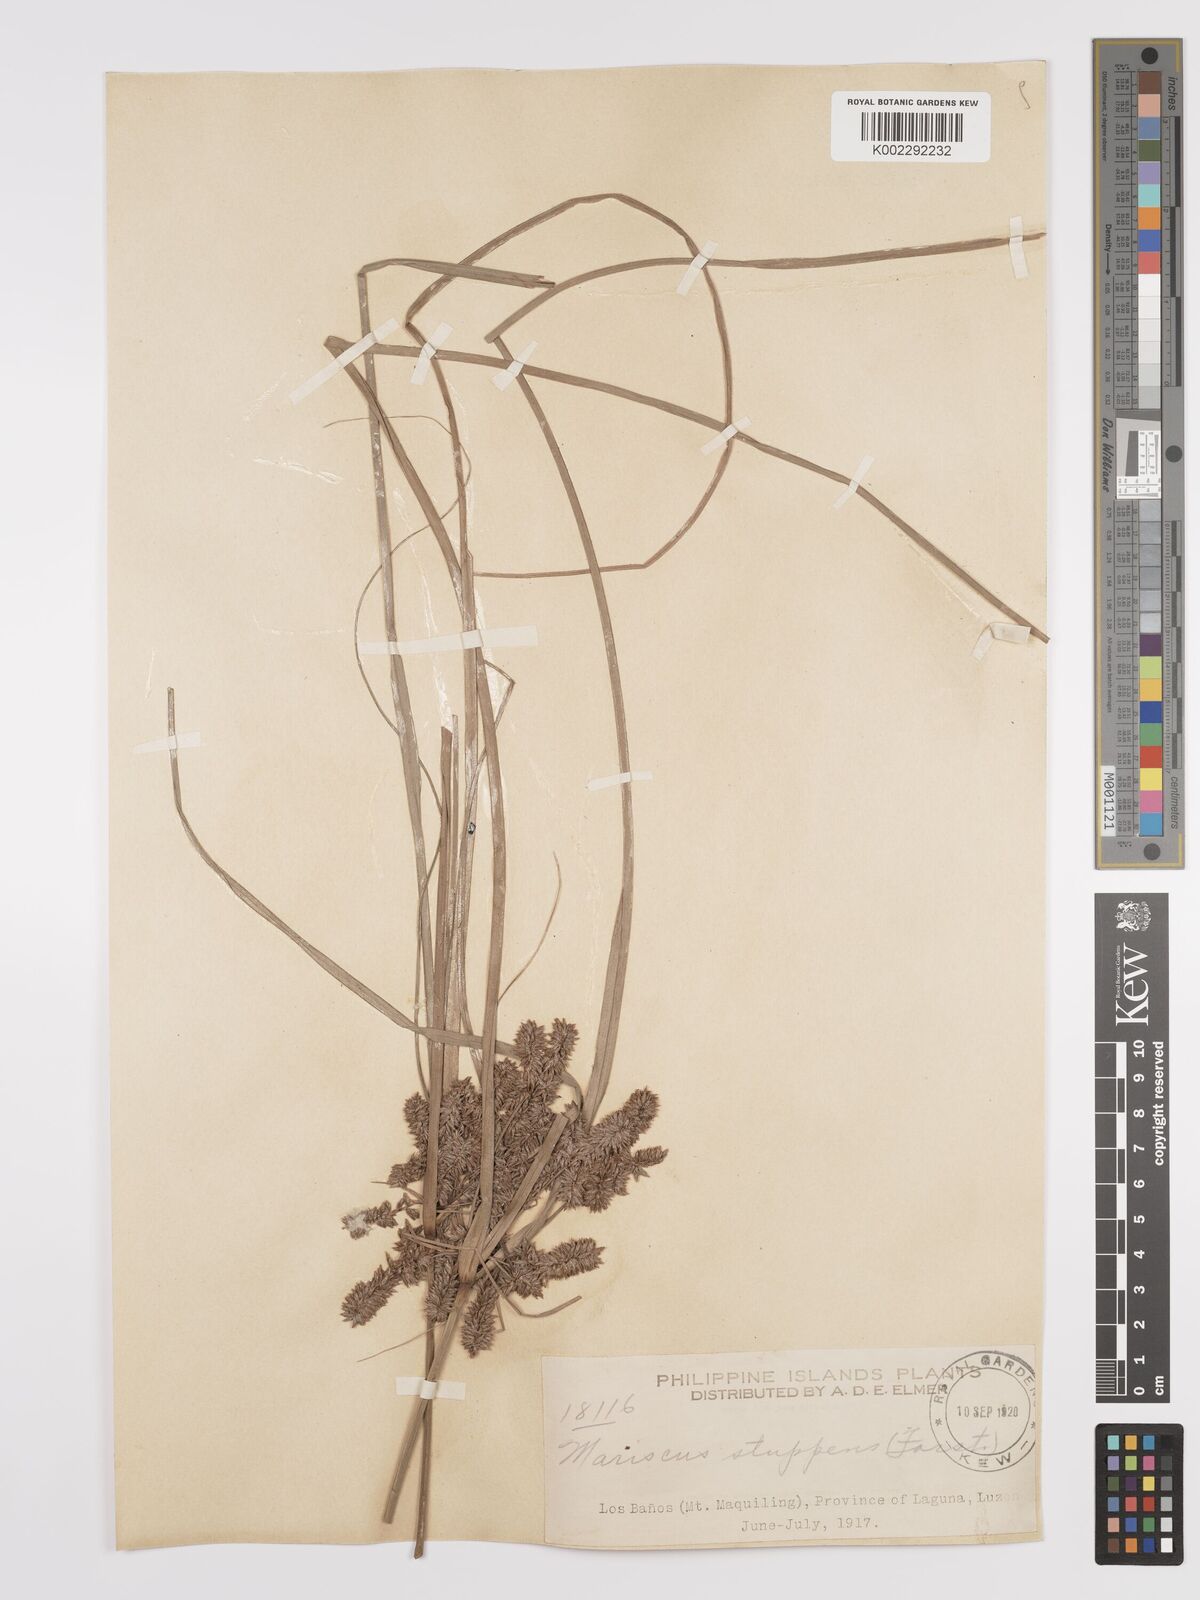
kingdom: Plantae
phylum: Tracheophyta
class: Liliopsida
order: Poales
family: Cyperaceae
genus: Cyperus
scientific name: Cyperus javanicus
